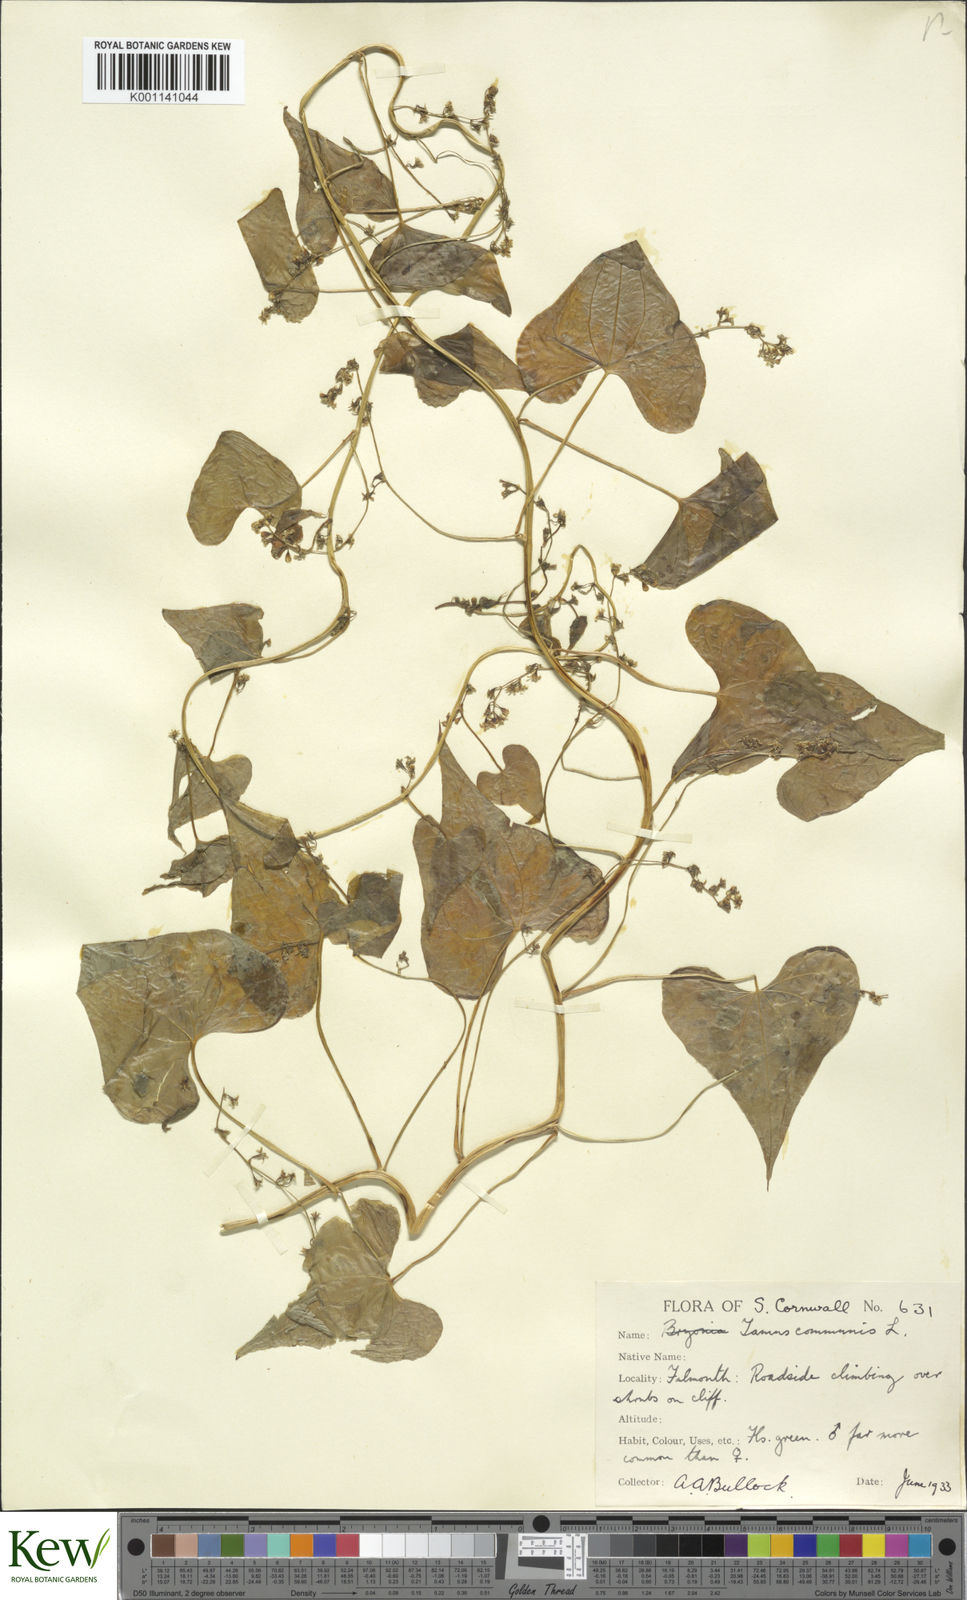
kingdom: Plantae
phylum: Tracheophyta
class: Liliopsida
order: Dioscoreales
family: Dioscoreaceae
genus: Dioscorea
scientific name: Dioscorea communis
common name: Black-bindweed
